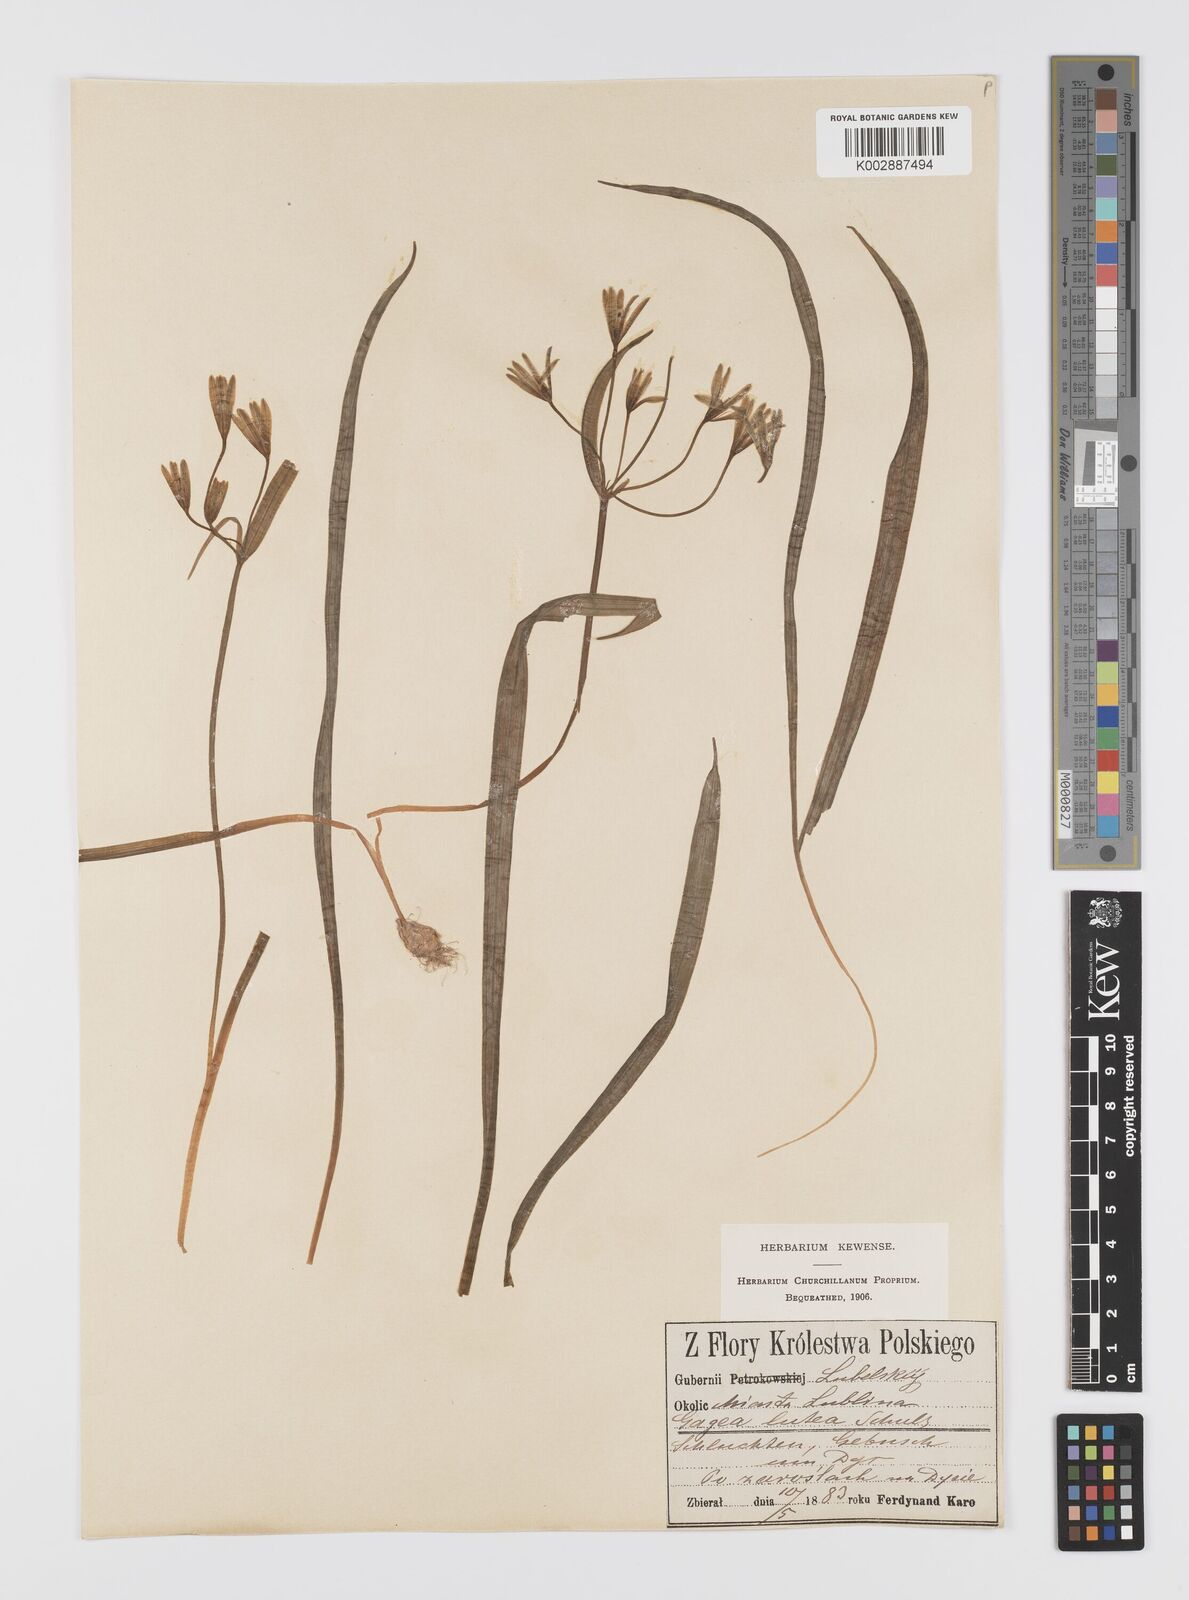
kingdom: Plantae
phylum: Tracheophyta
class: Liliopsida
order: Liliales
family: Liliaceae
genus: Gagea
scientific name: Gagea lutea
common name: Yellow star-of-bethlehem
